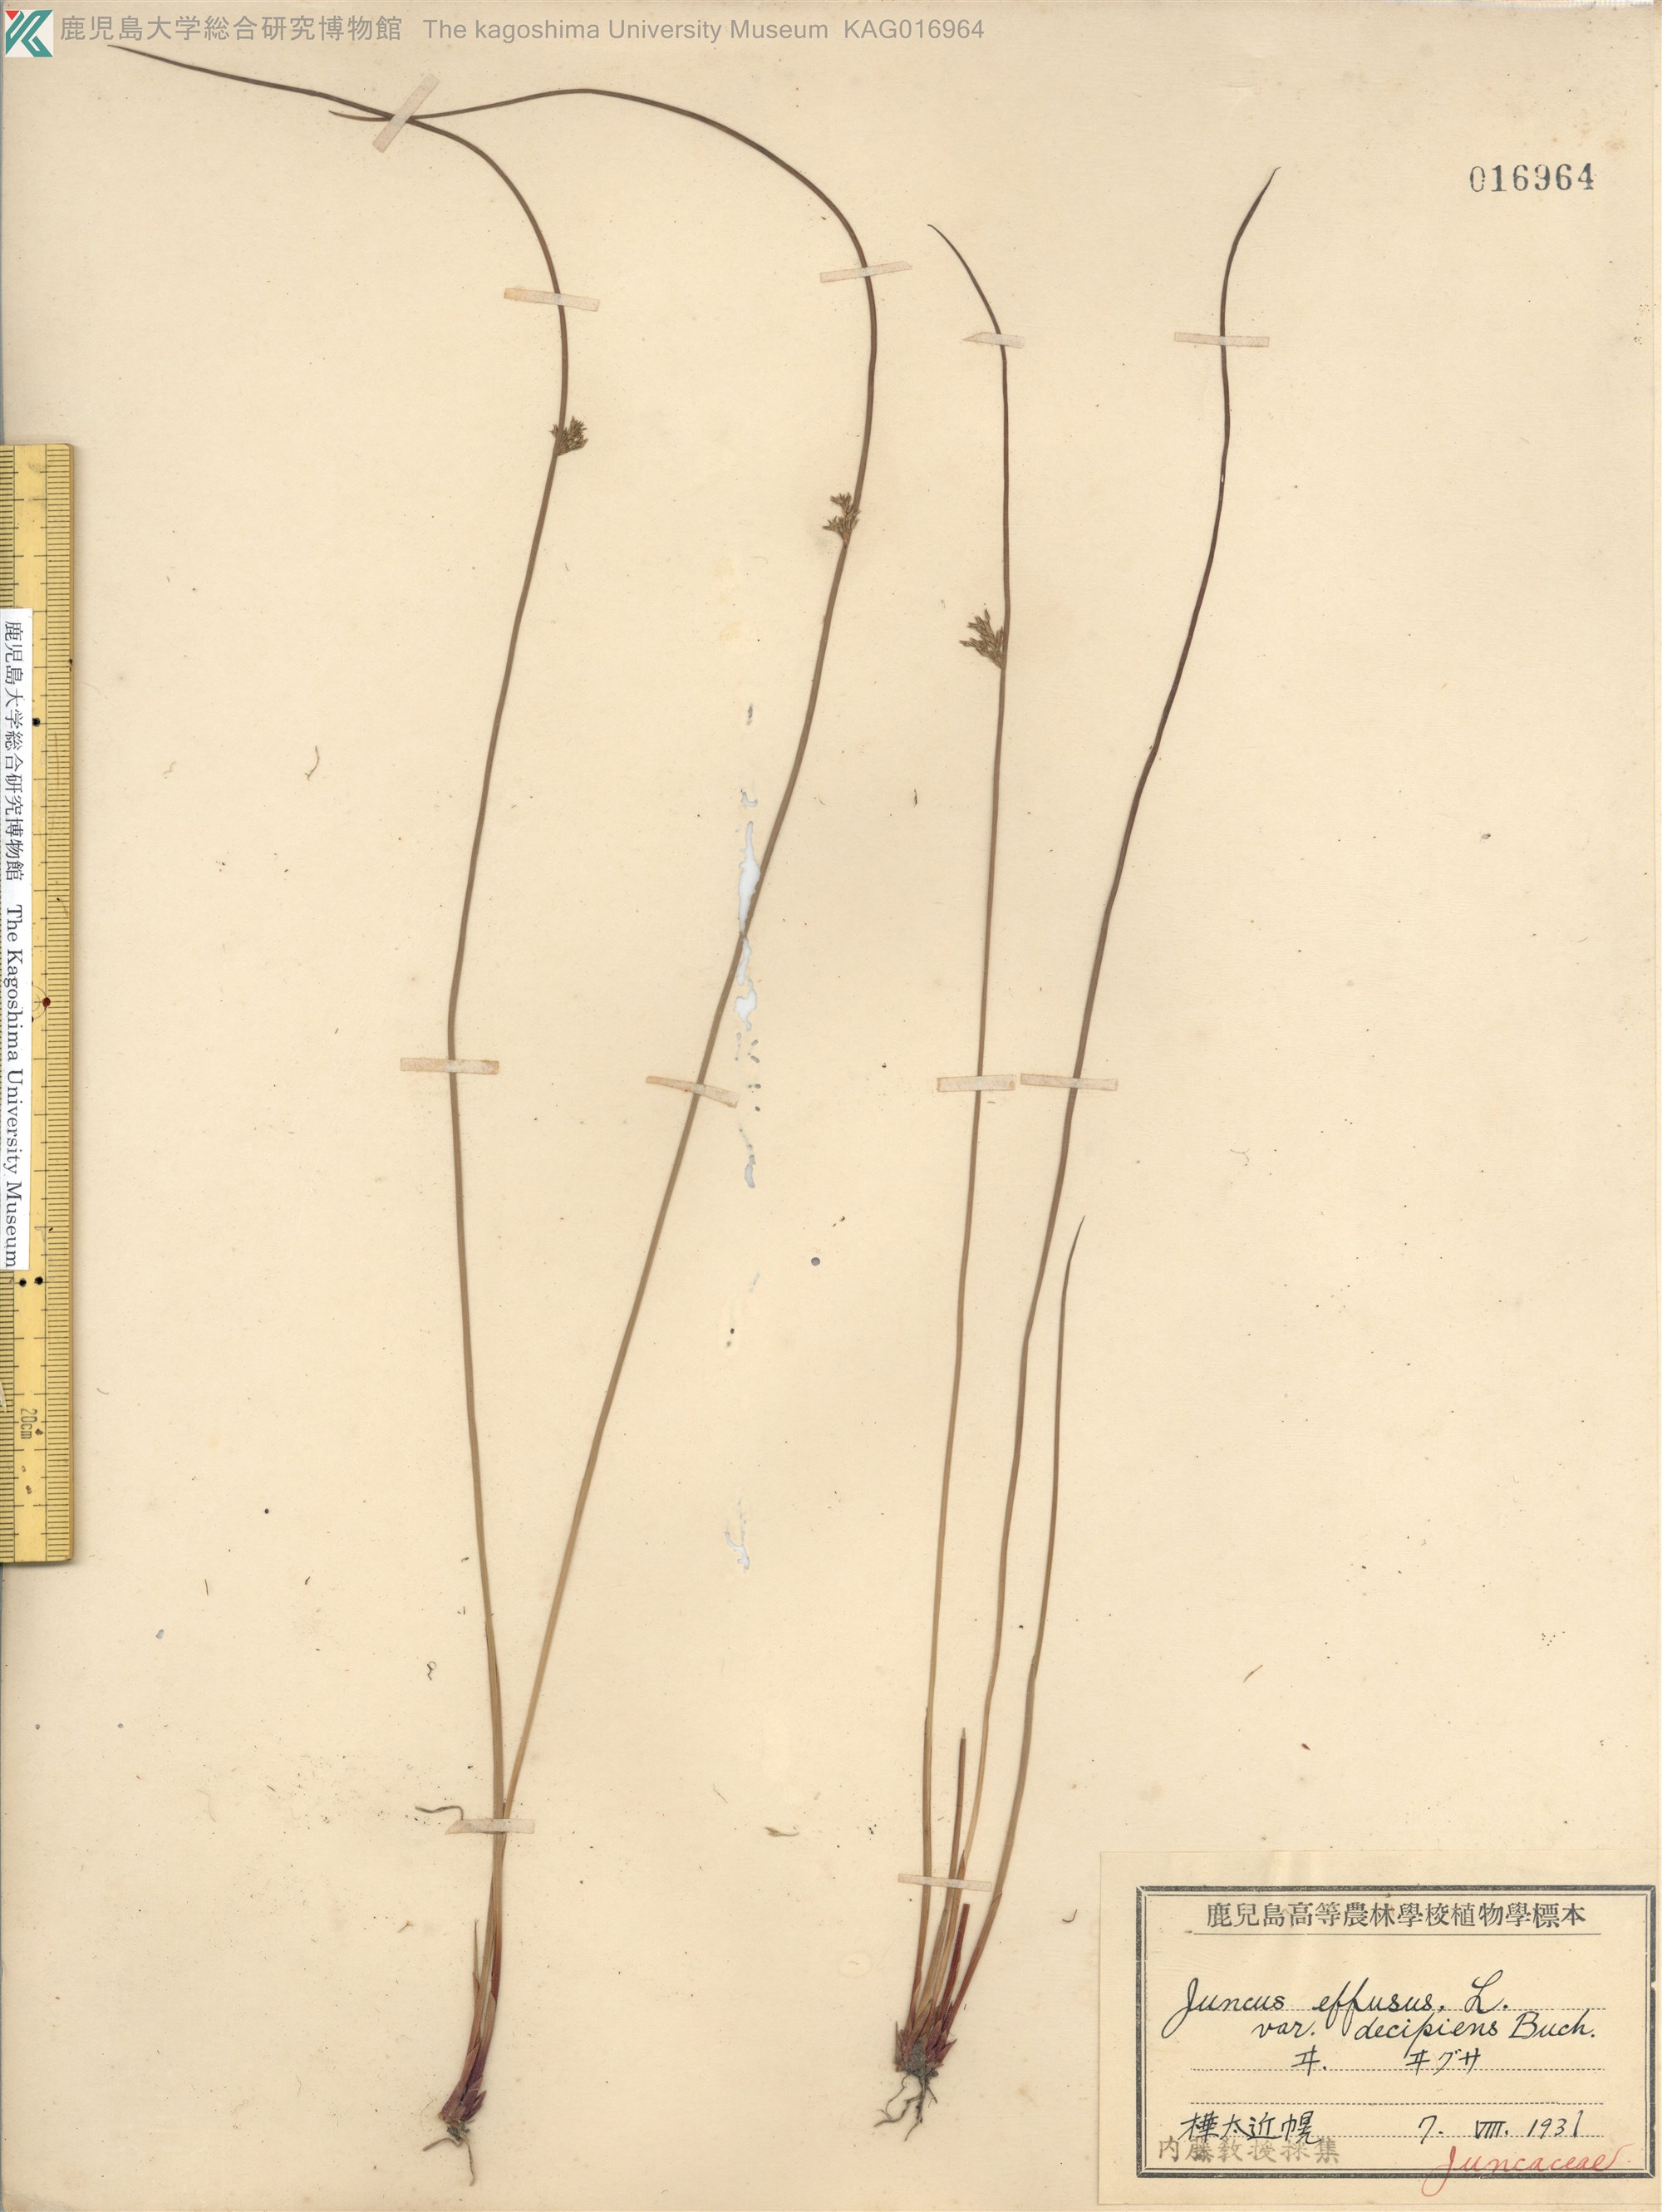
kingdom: Plantae
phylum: Tracheophyta
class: Liliopsida
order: Poales
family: Juncaceae
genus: Juncus
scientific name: Juncus decipiens
